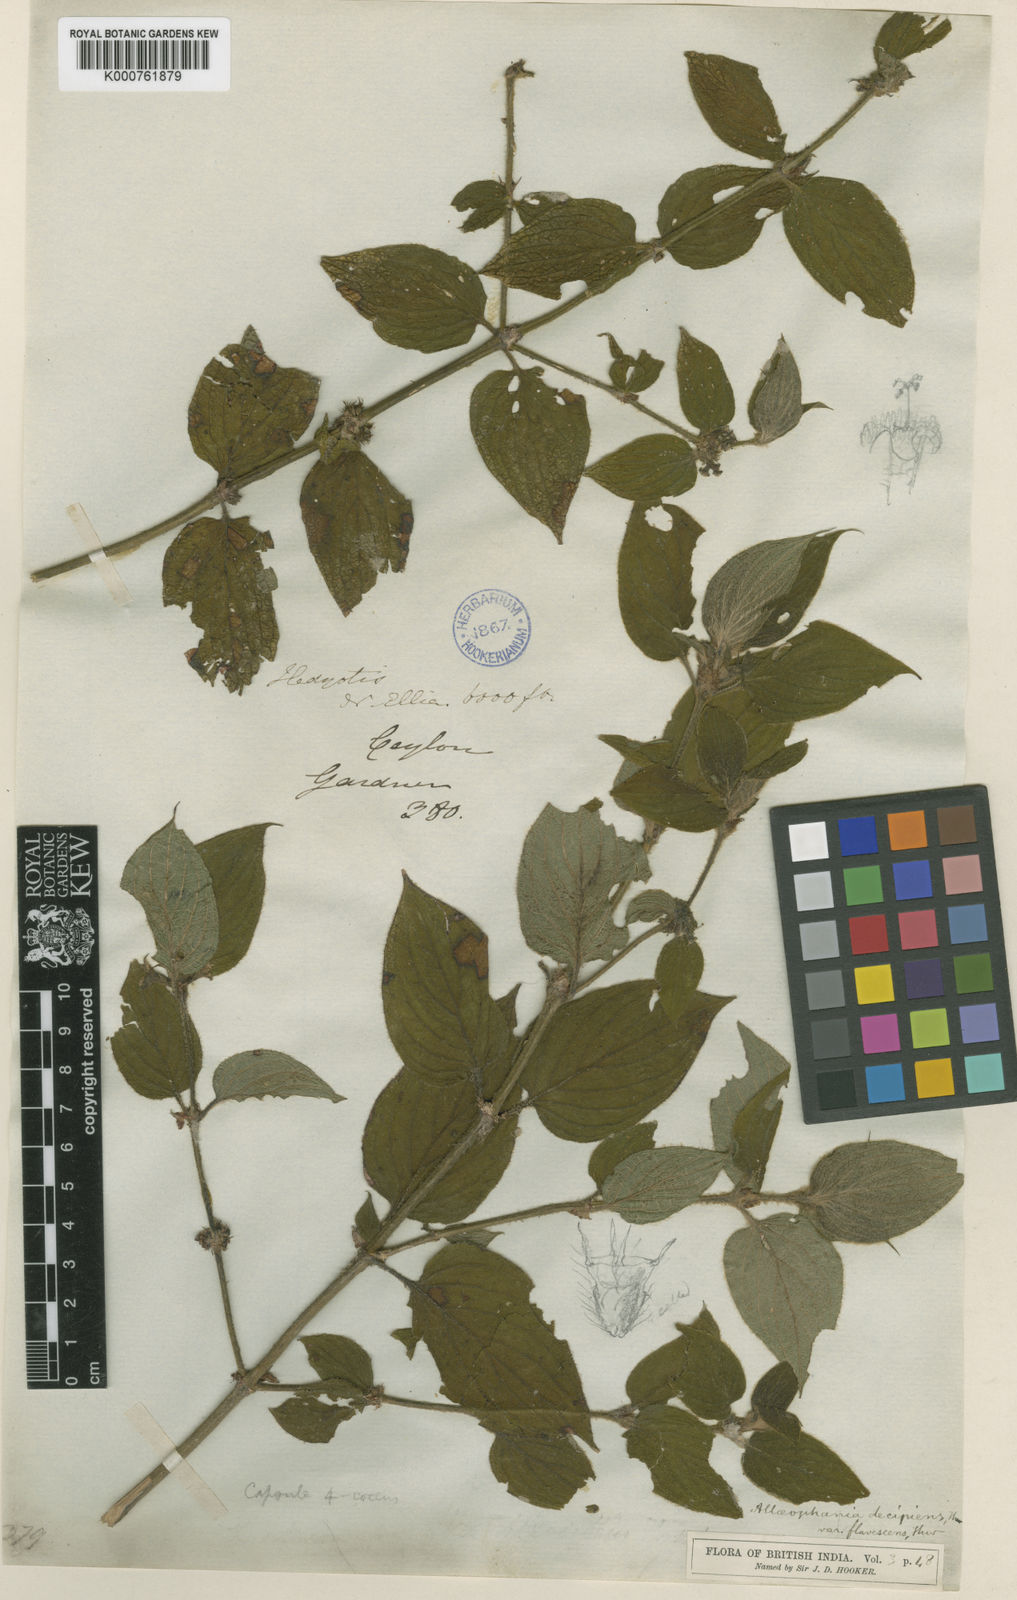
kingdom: Plantae
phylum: Tracheophyta
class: Magnoliopsida
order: Gentianales
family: Rubiaceae
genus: Hedyotis
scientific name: Hedyotis
